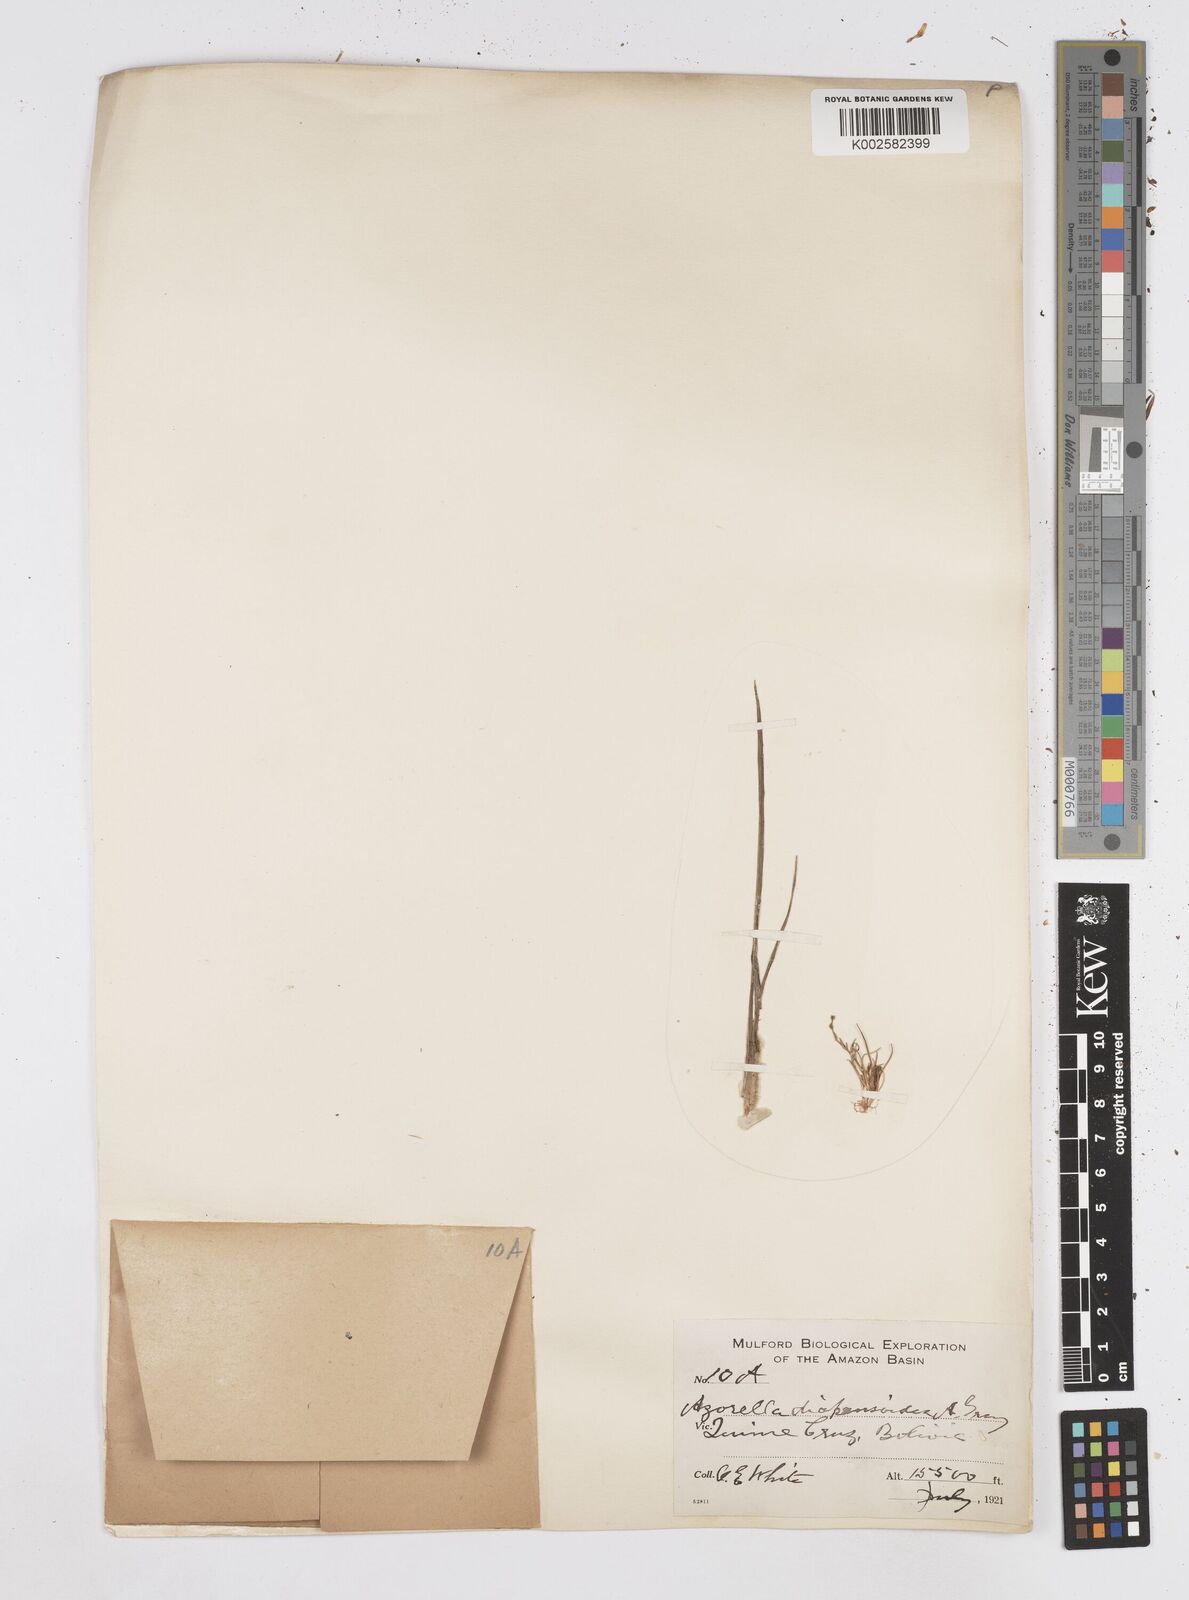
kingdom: Plantae
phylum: Tracheophyta
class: Magnoliopsida
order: Apiales
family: Apiaceae
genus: Azorella
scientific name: Azorella diapensioides
